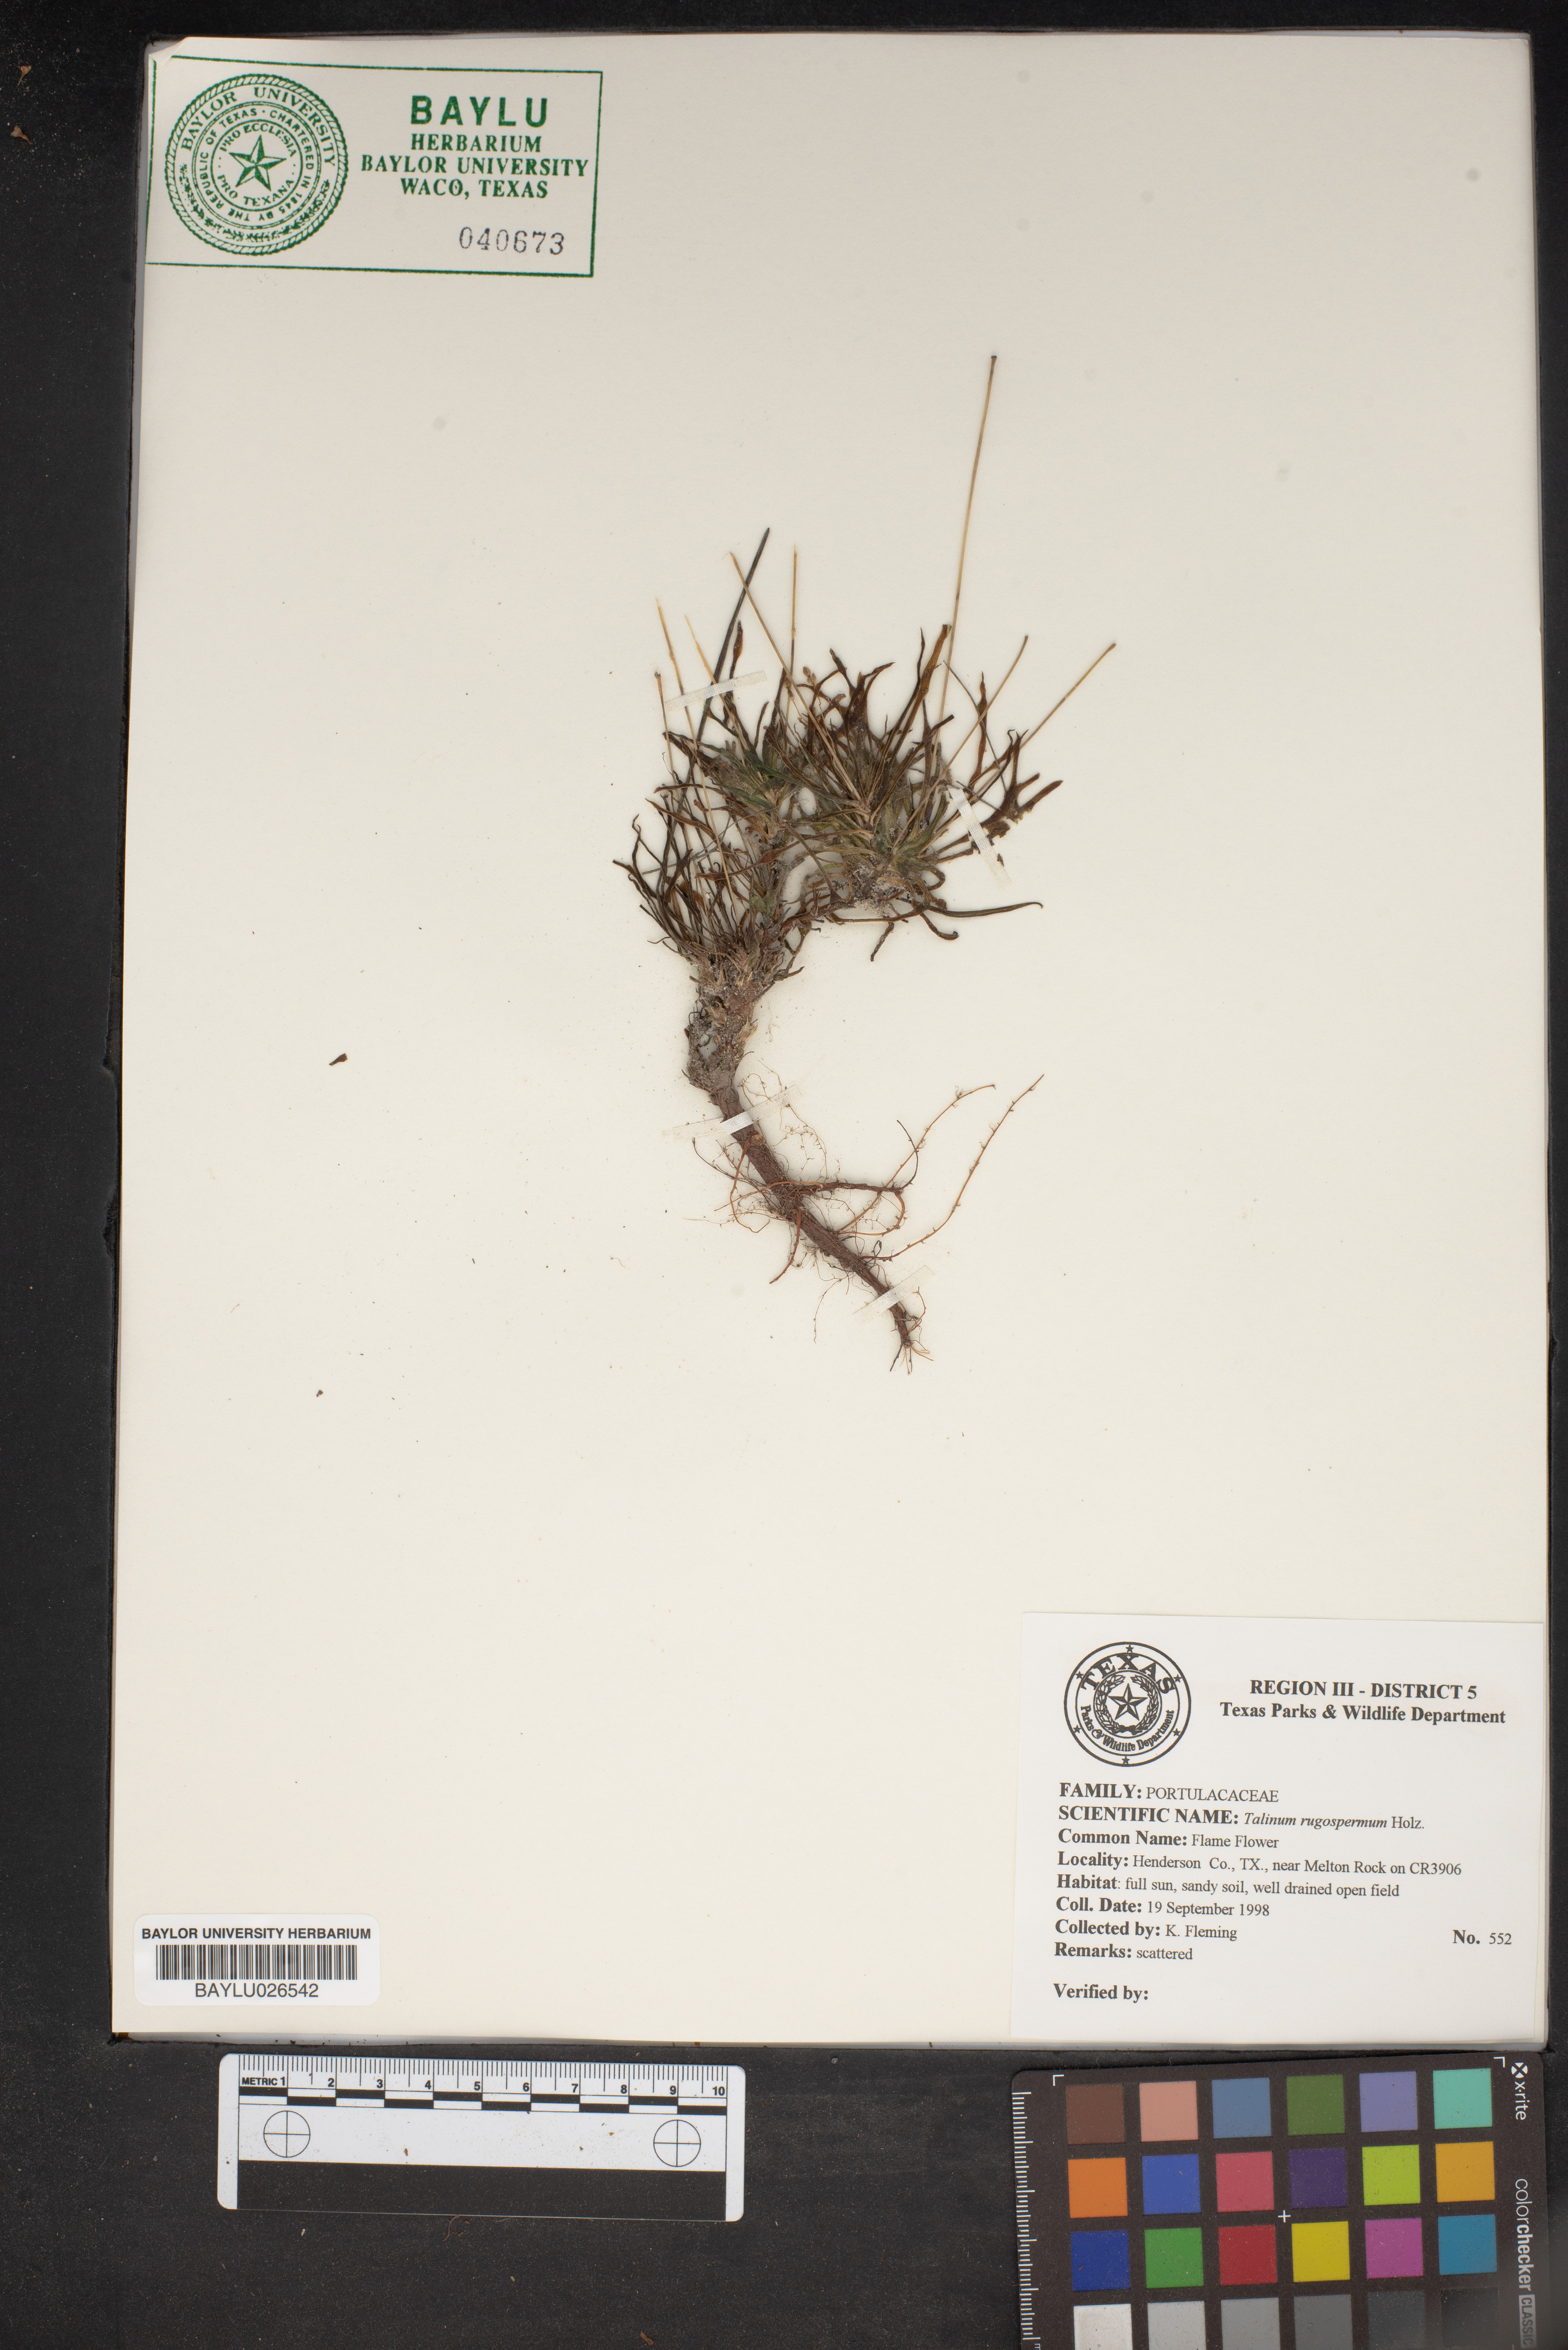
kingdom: Plantae
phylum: Tracheophyta
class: Magnoliopsida
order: Caryophyllales
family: Montiaceae
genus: Phemeranthus
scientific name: Phemeranthus rugospermus
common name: Prairie fameflower
